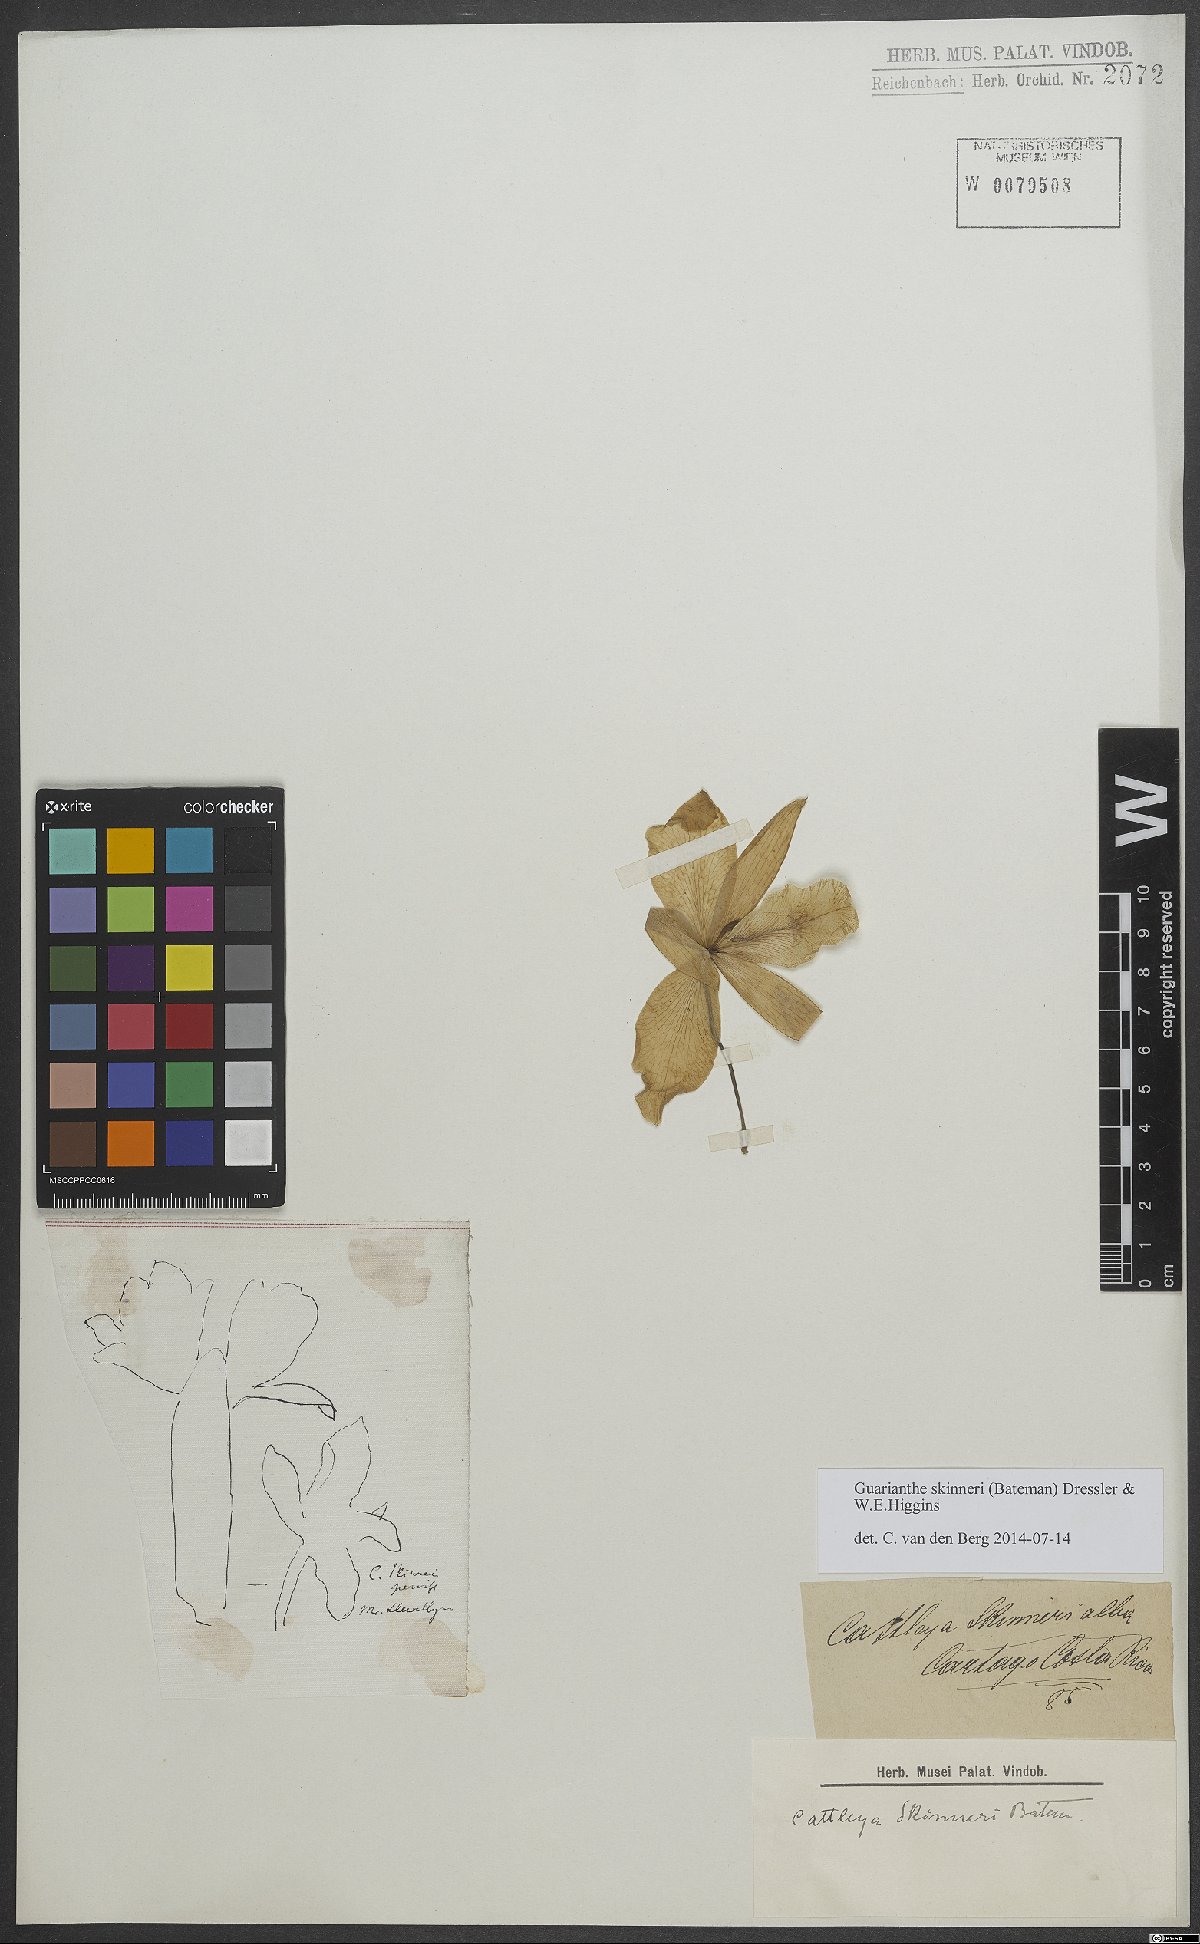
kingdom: Plantae
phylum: Tracheophyta
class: Liliopsida
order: Asparagales
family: Orchidaceae
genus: Guarianthe
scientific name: Guarianthe skinneri
